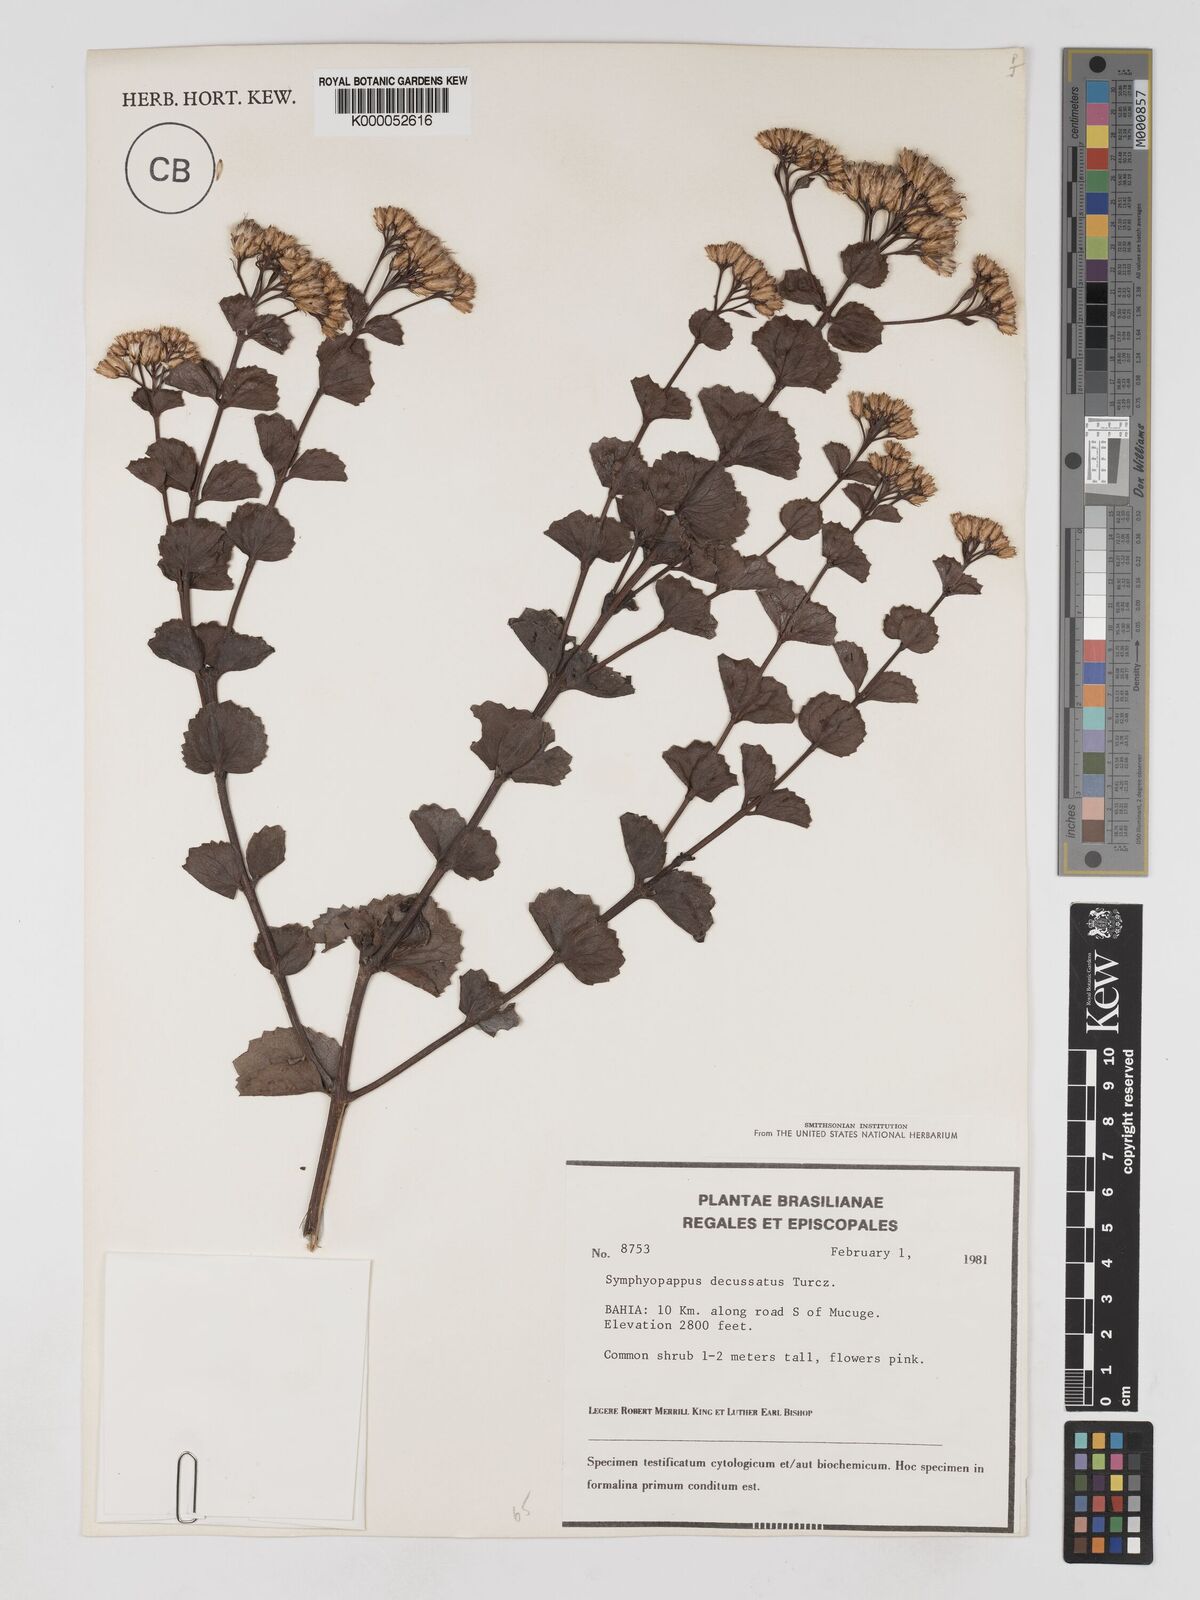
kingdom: Plantae
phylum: Tracheophyta
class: Magnoliopsida
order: Asterales
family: Asteraceae
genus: Symphyopappus
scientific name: Symphyopappus decussatus
